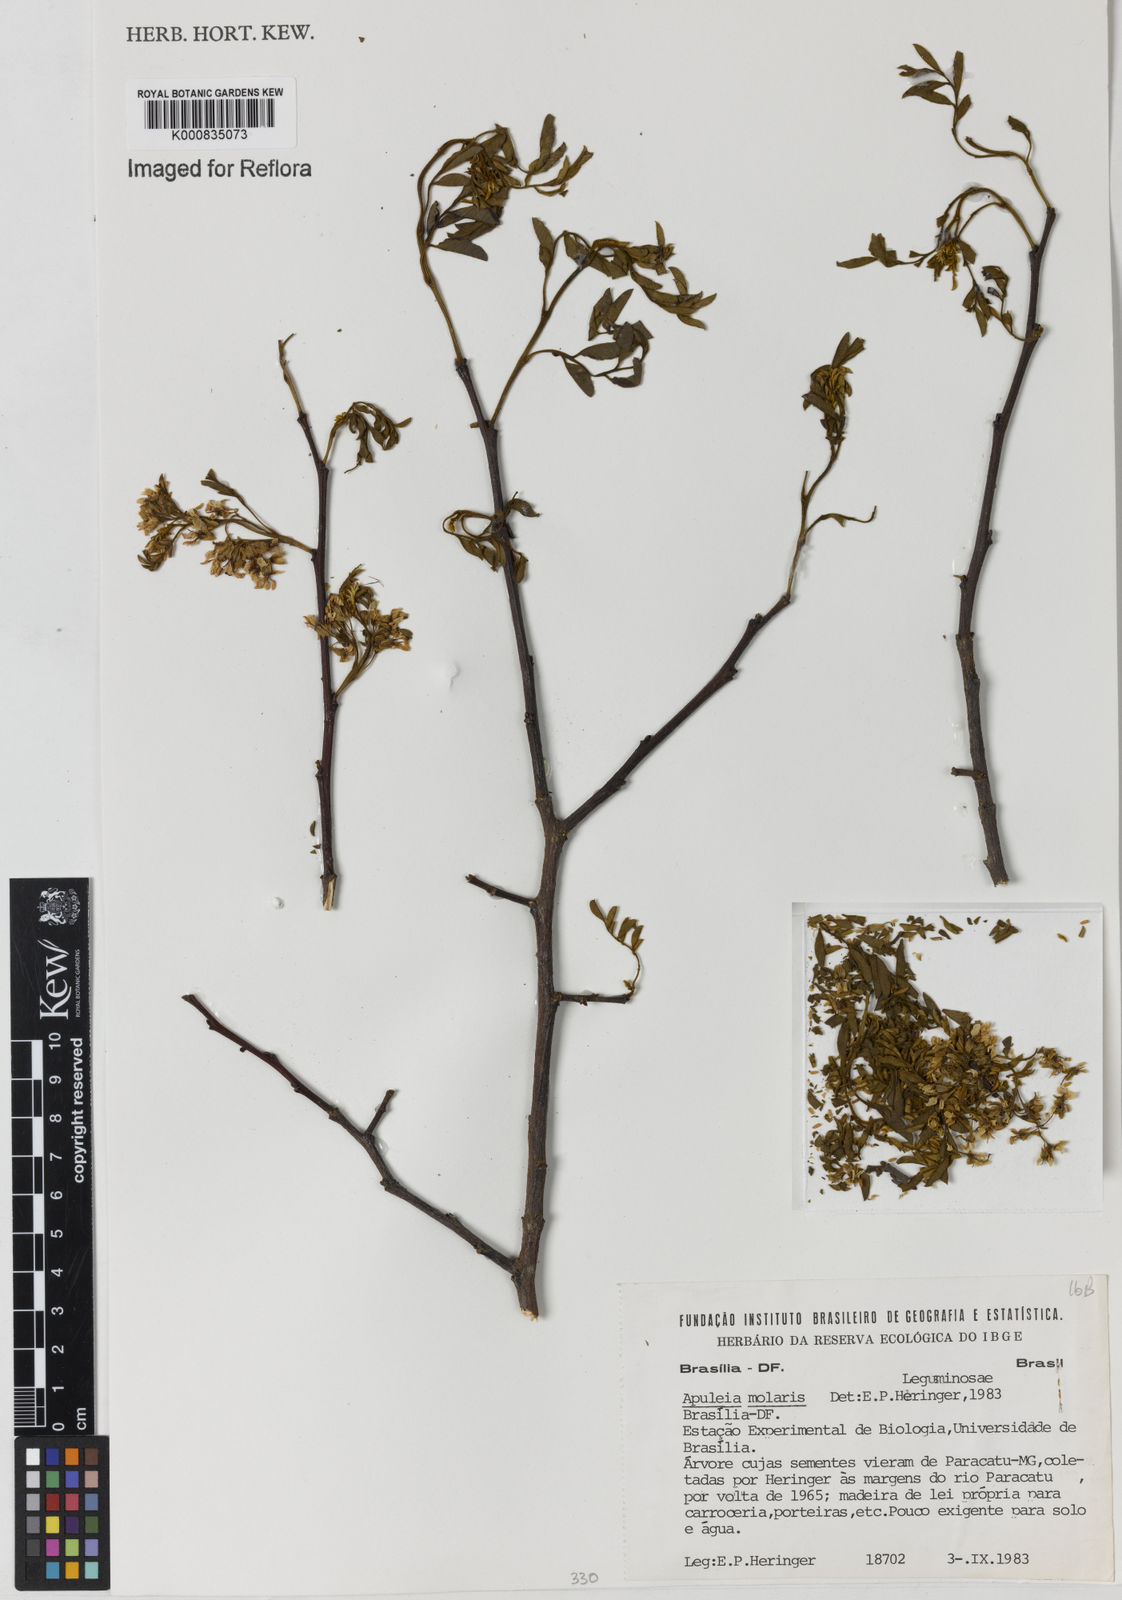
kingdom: Plantae
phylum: Tracheophyta
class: Magnoliopsida
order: Fabales
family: Fabaceae
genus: Apuleia
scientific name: Apuleia leiocarpa
